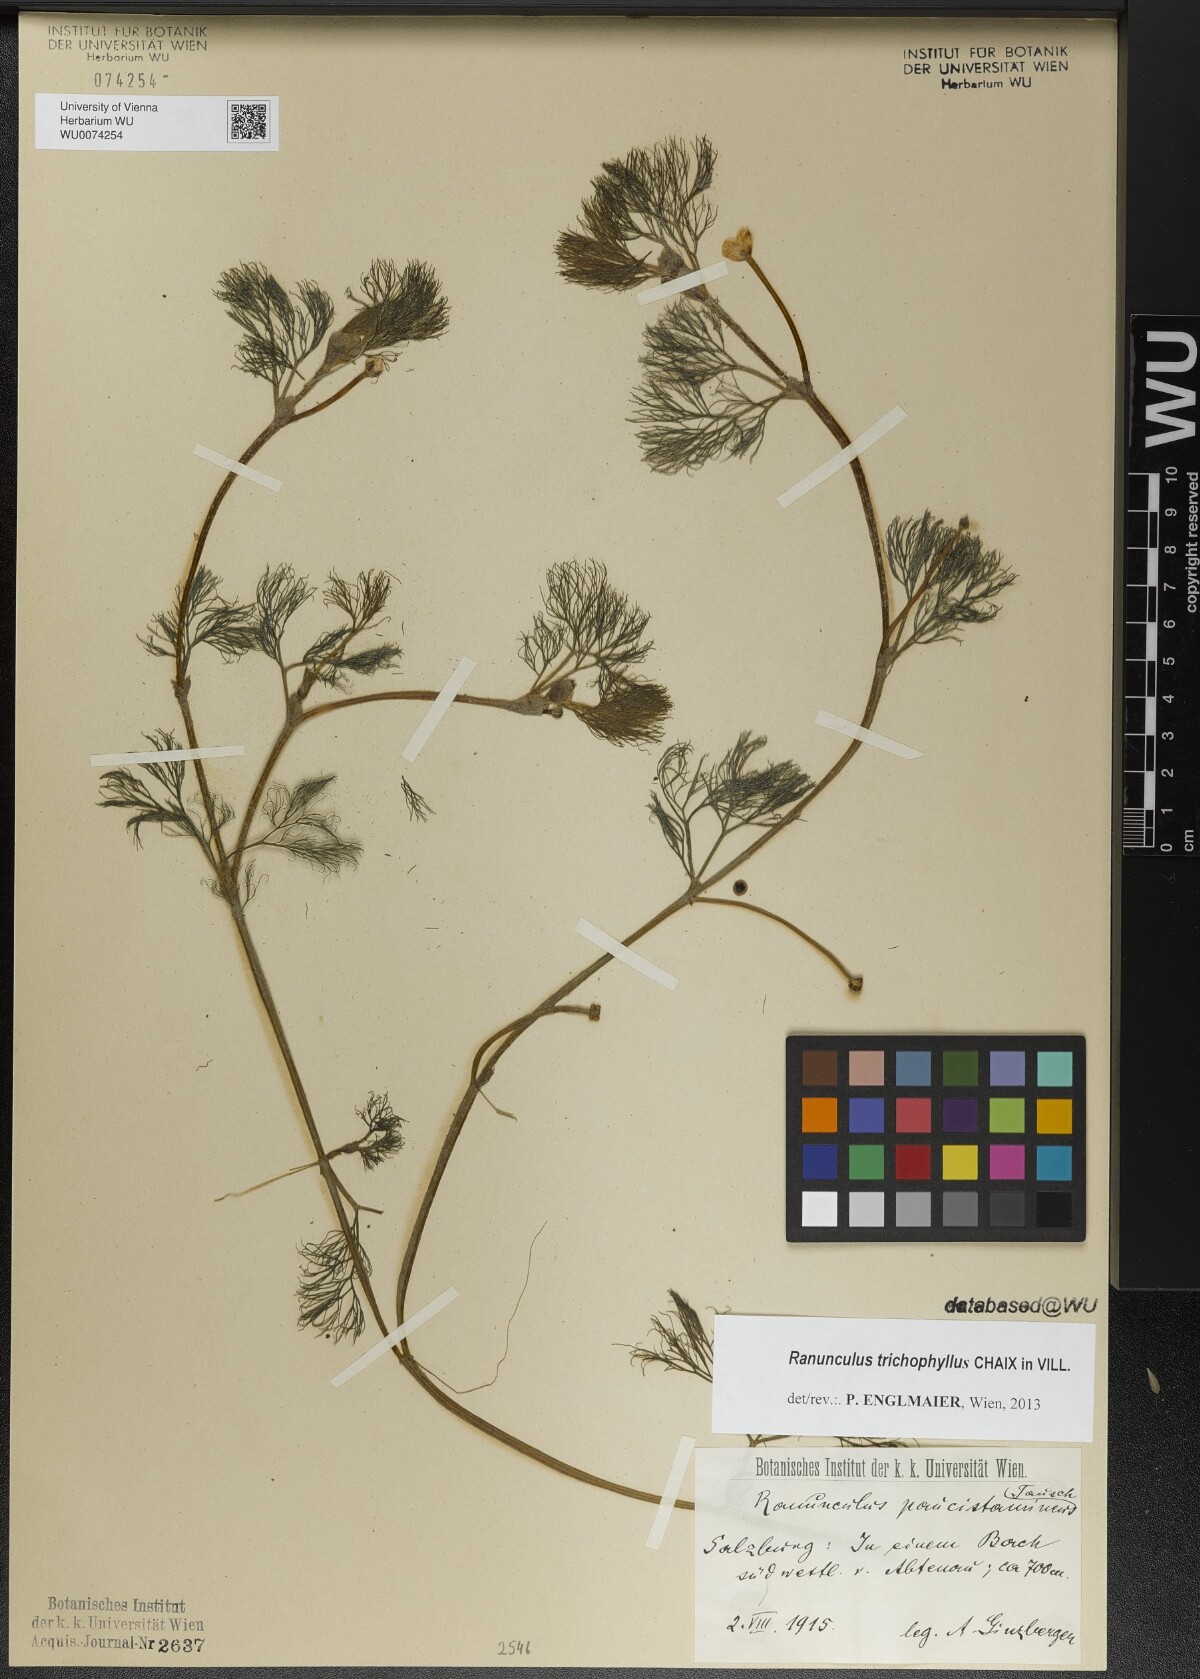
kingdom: Plantae
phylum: Tracheophyta
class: Magnoliopsida
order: Ranunculales
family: Ranunculaceae
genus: Ranunculus
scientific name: Ranunculus trichophyllus
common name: Thread-leaved water-crowfoot
